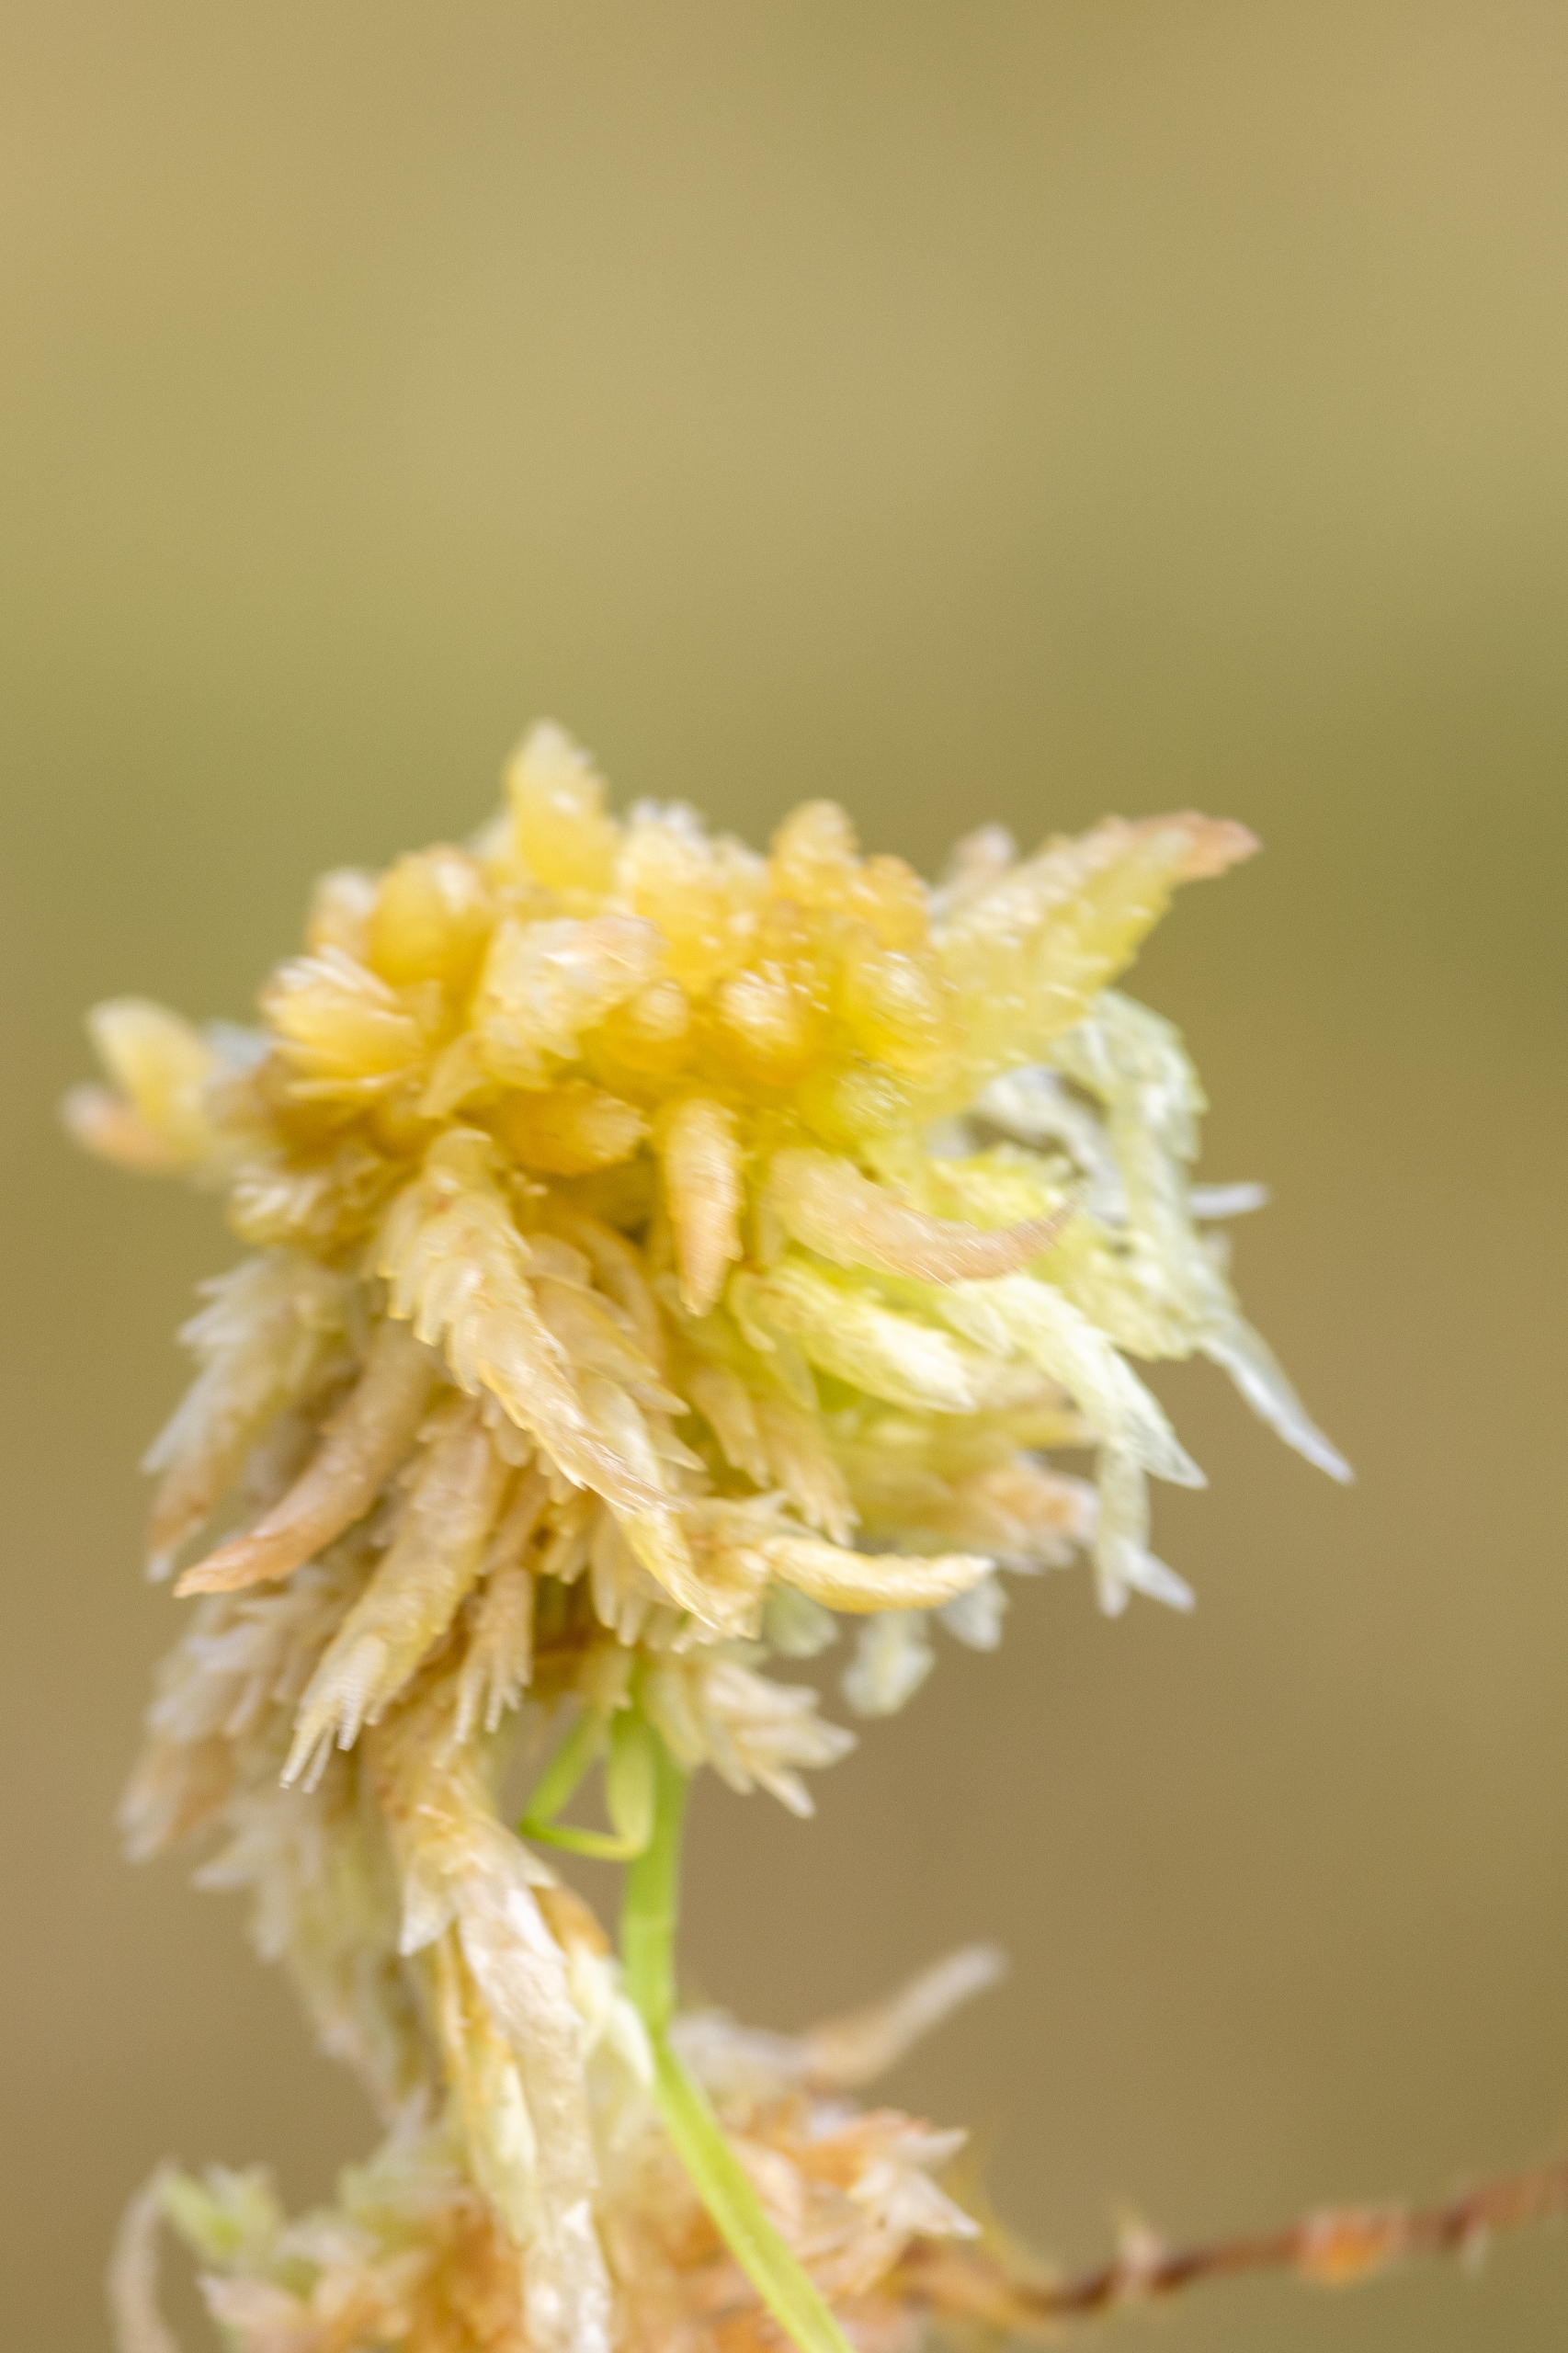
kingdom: Plantae
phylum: Bryophyta
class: Sphagnopsida
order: Sphagnales
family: Sphagnaceae
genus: Sphagnum
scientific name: Sphagnum
